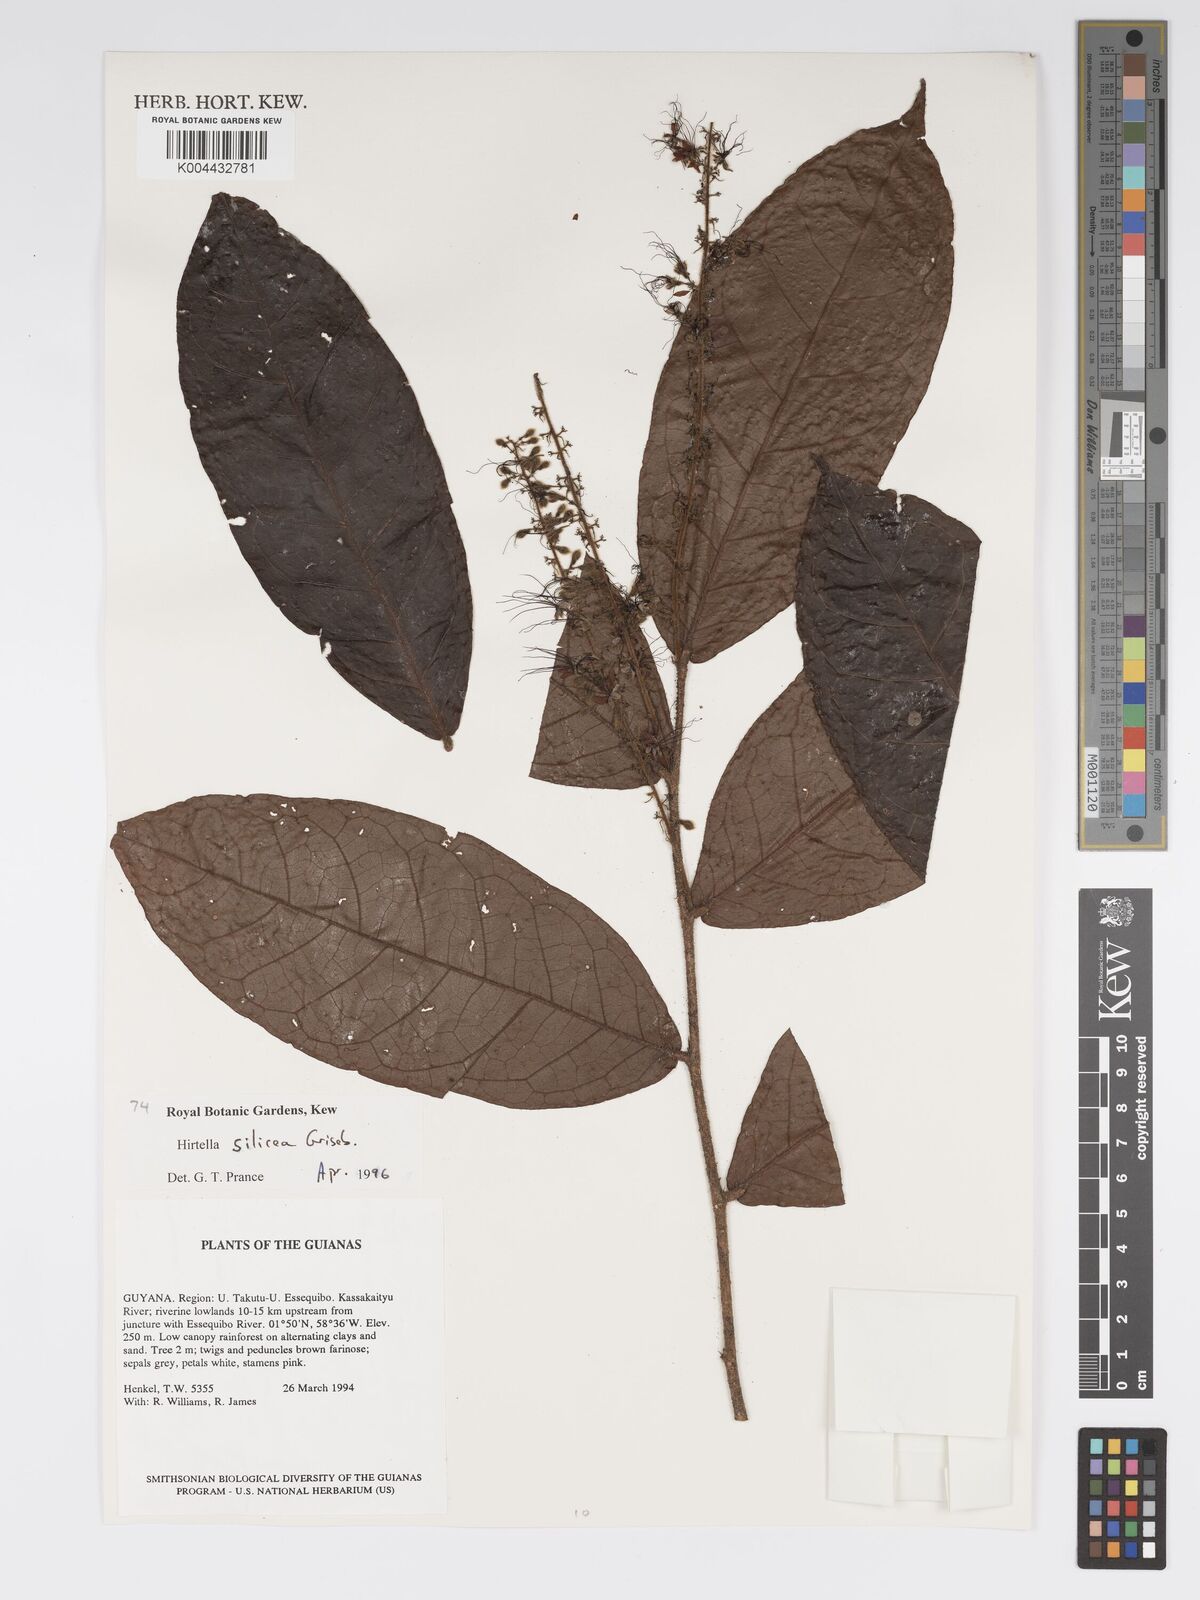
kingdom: Plantae
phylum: Tracheophyta
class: Magnoliopsida
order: Malpighiales
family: Chrysobalanaceae
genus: Hirtella
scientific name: Hirtella silicea
